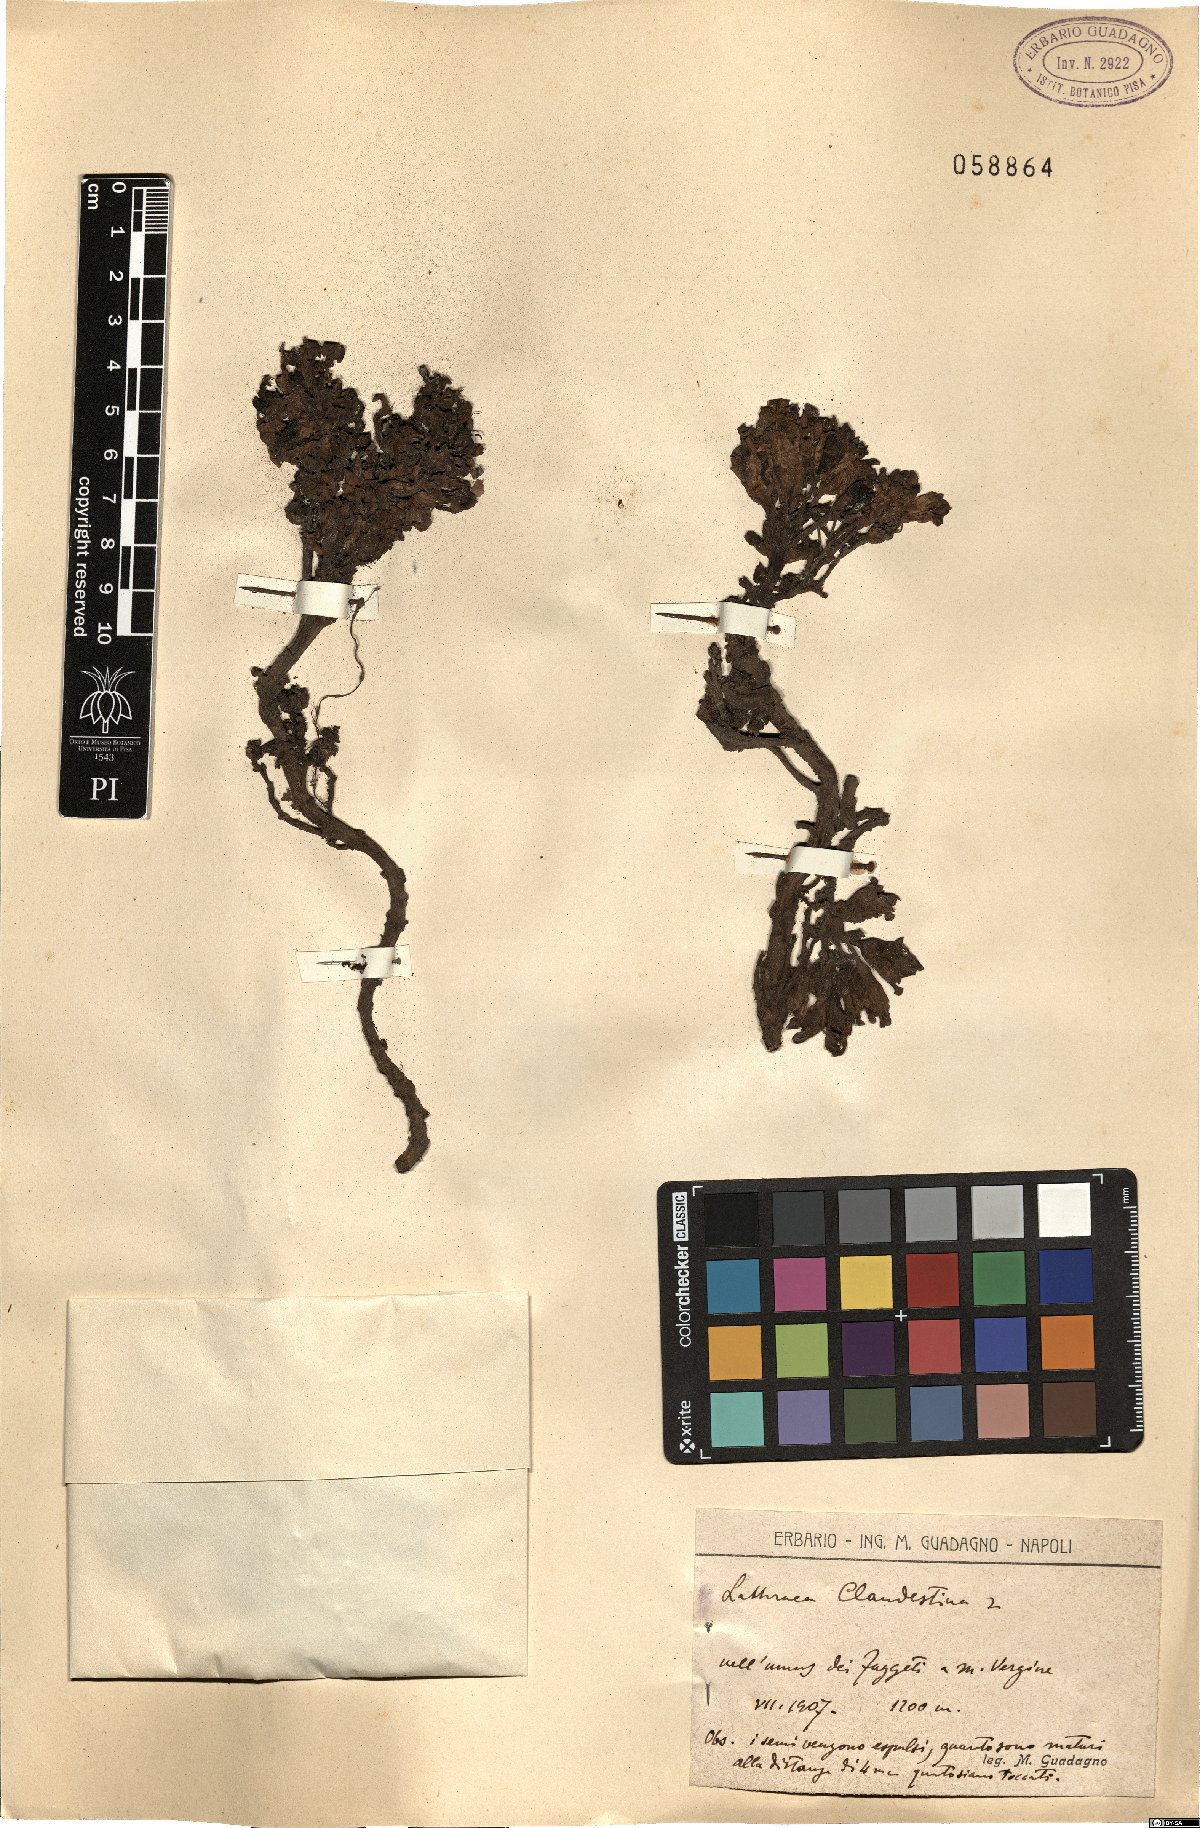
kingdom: Plantae
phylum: Tracheophyta
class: Magnoliopsida
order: Lamiales
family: Orobanchaceae
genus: Lathraea
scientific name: Lathraea clandestina
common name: Purple toothwort
